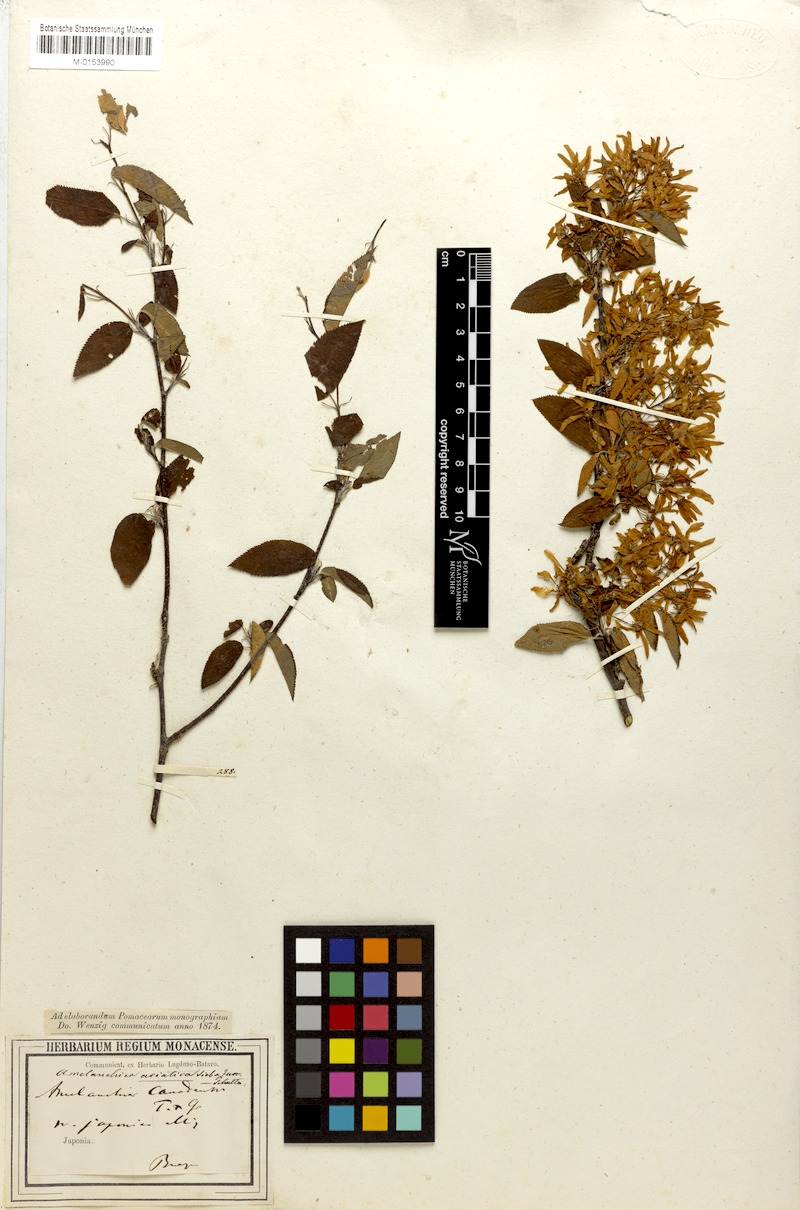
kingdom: Plantae
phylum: Tracheophyta
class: Magnoliopsida
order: Rosales
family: Rosaceae
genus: Amelanchier
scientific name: Amelanchier asiatica
